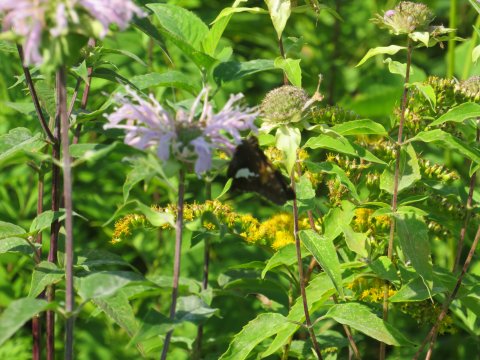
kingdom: Animalia
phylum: Arthropoda
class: Insecta
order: Lepidoptera
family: Hesperiidae
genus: Epargyreus
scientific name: Epargyreus clarus
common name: Silver-spotted Skipper
